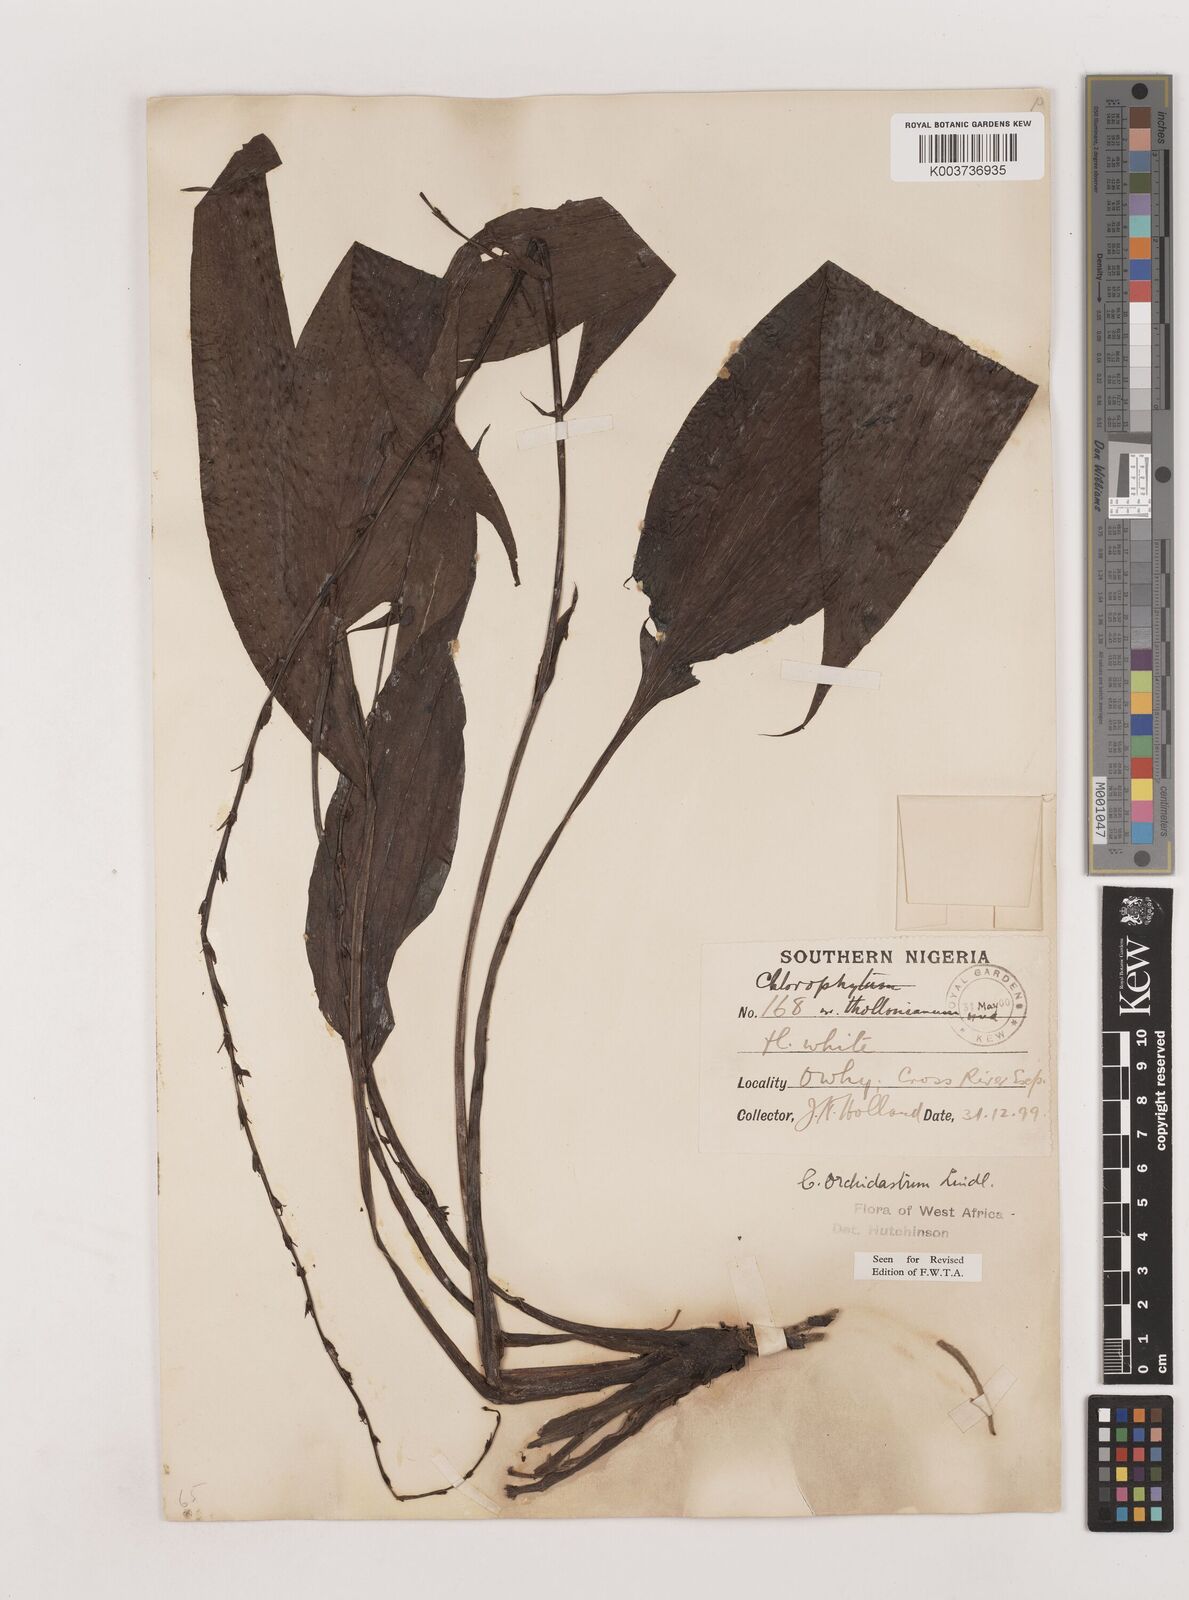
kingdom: Plantae
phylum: Tracheophyta
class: Liliopsida
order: Asparagales
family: Asparagaceae
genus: Chlorophytum
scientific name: Chlorophytum orchidastrum
